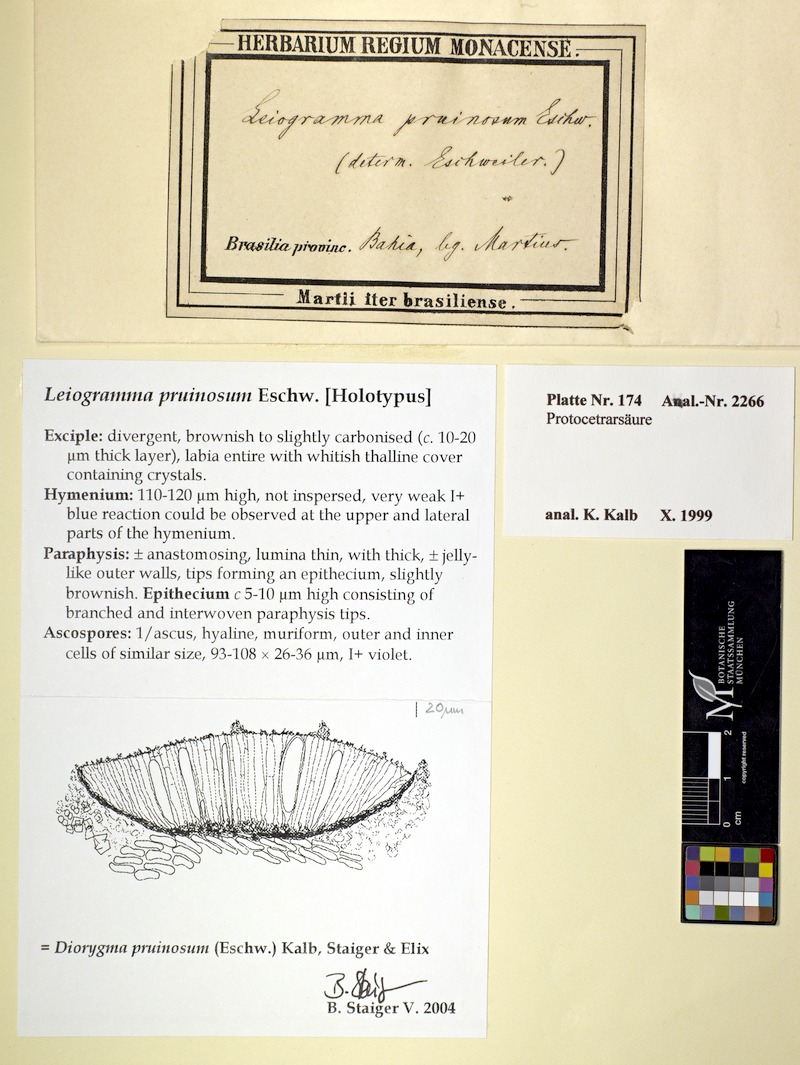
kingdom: Fungi
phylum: Ascomycota
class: Lecanoromycetes
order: Ostropales
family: Graphidaceae
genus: Diorygma
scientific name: Diorygma pruinosum
